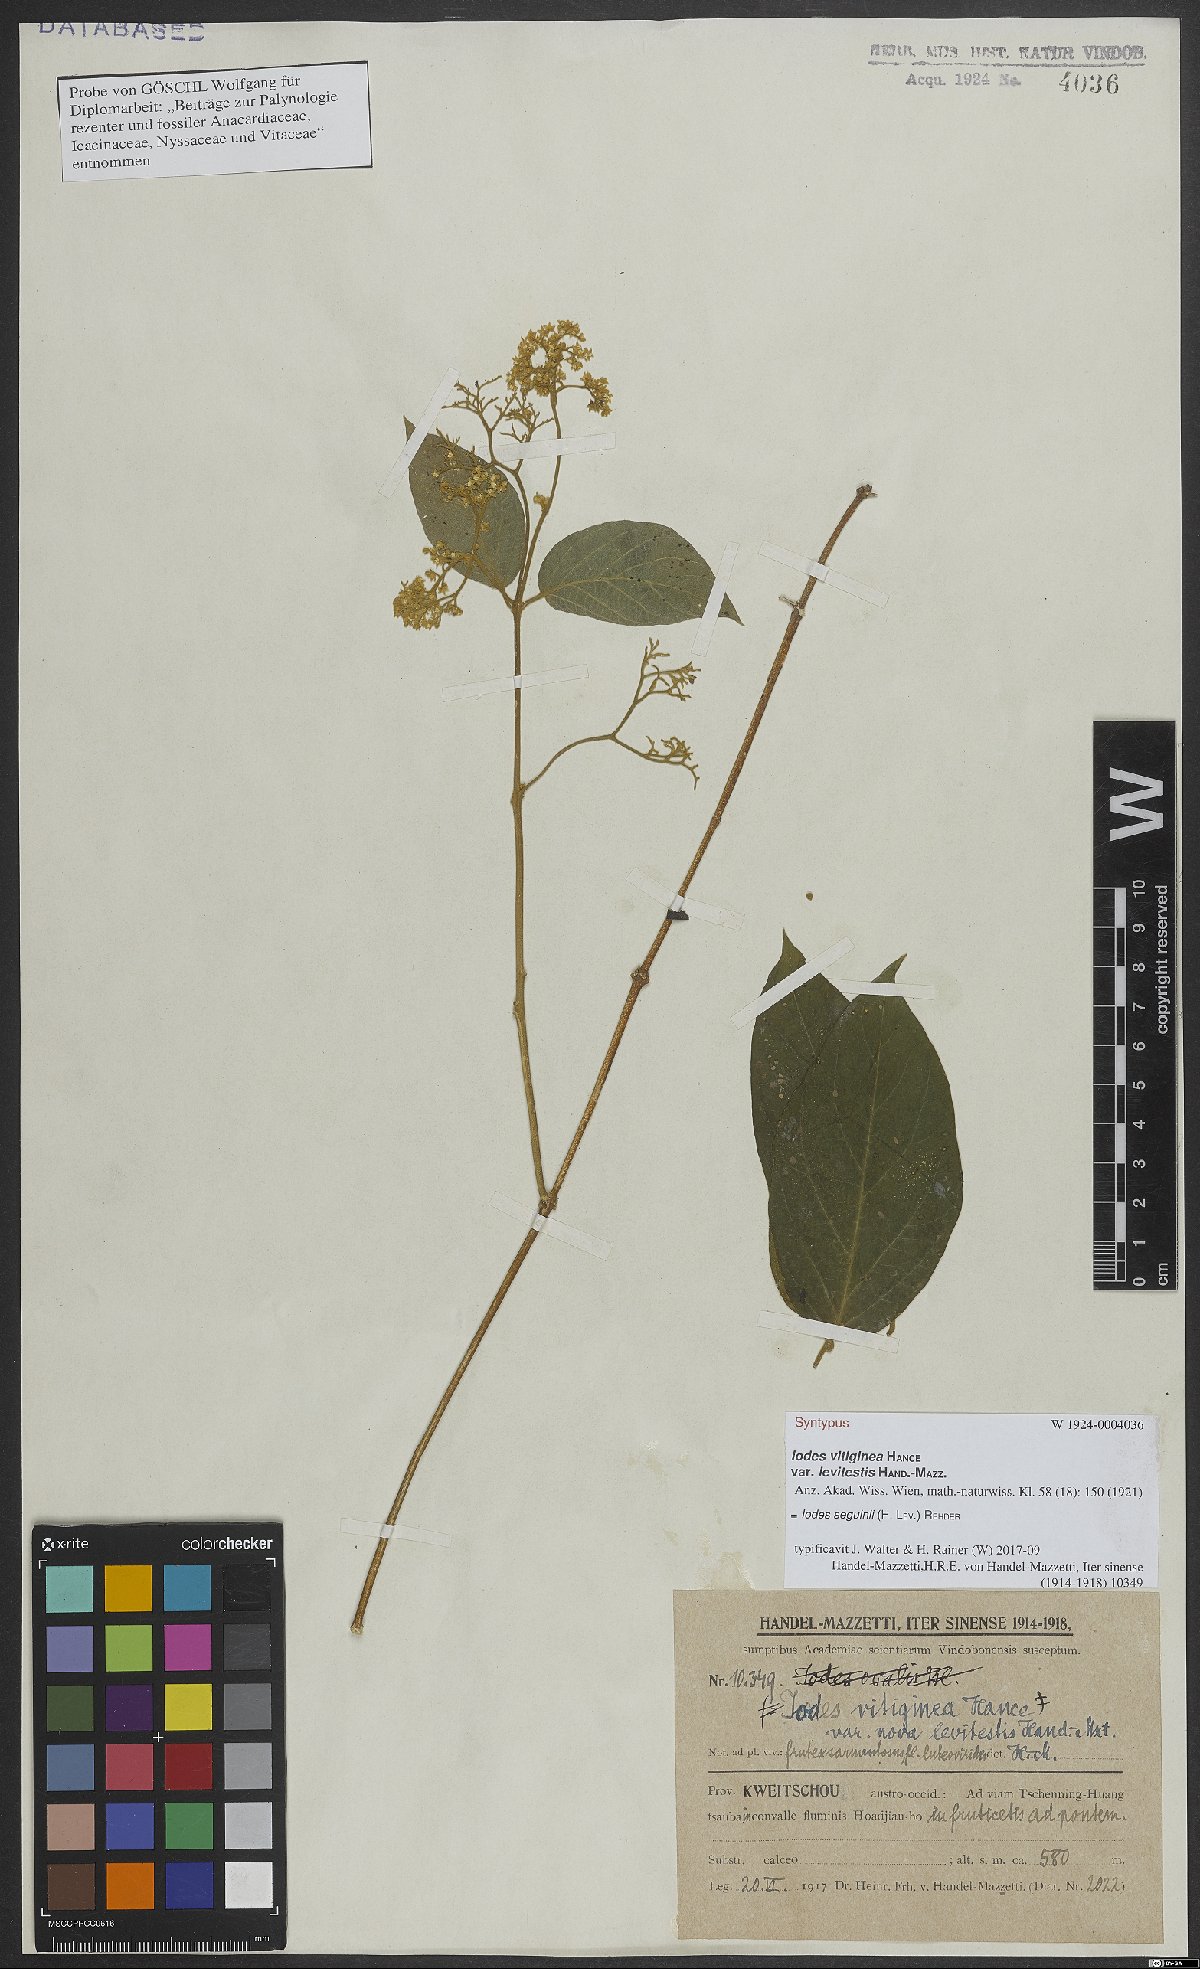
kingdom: Plantae
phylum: Tracheophyta
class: Magnoliopsida
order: Icacinales
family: Icacinaceae
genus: Iodes
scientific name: Iodes seguinii
